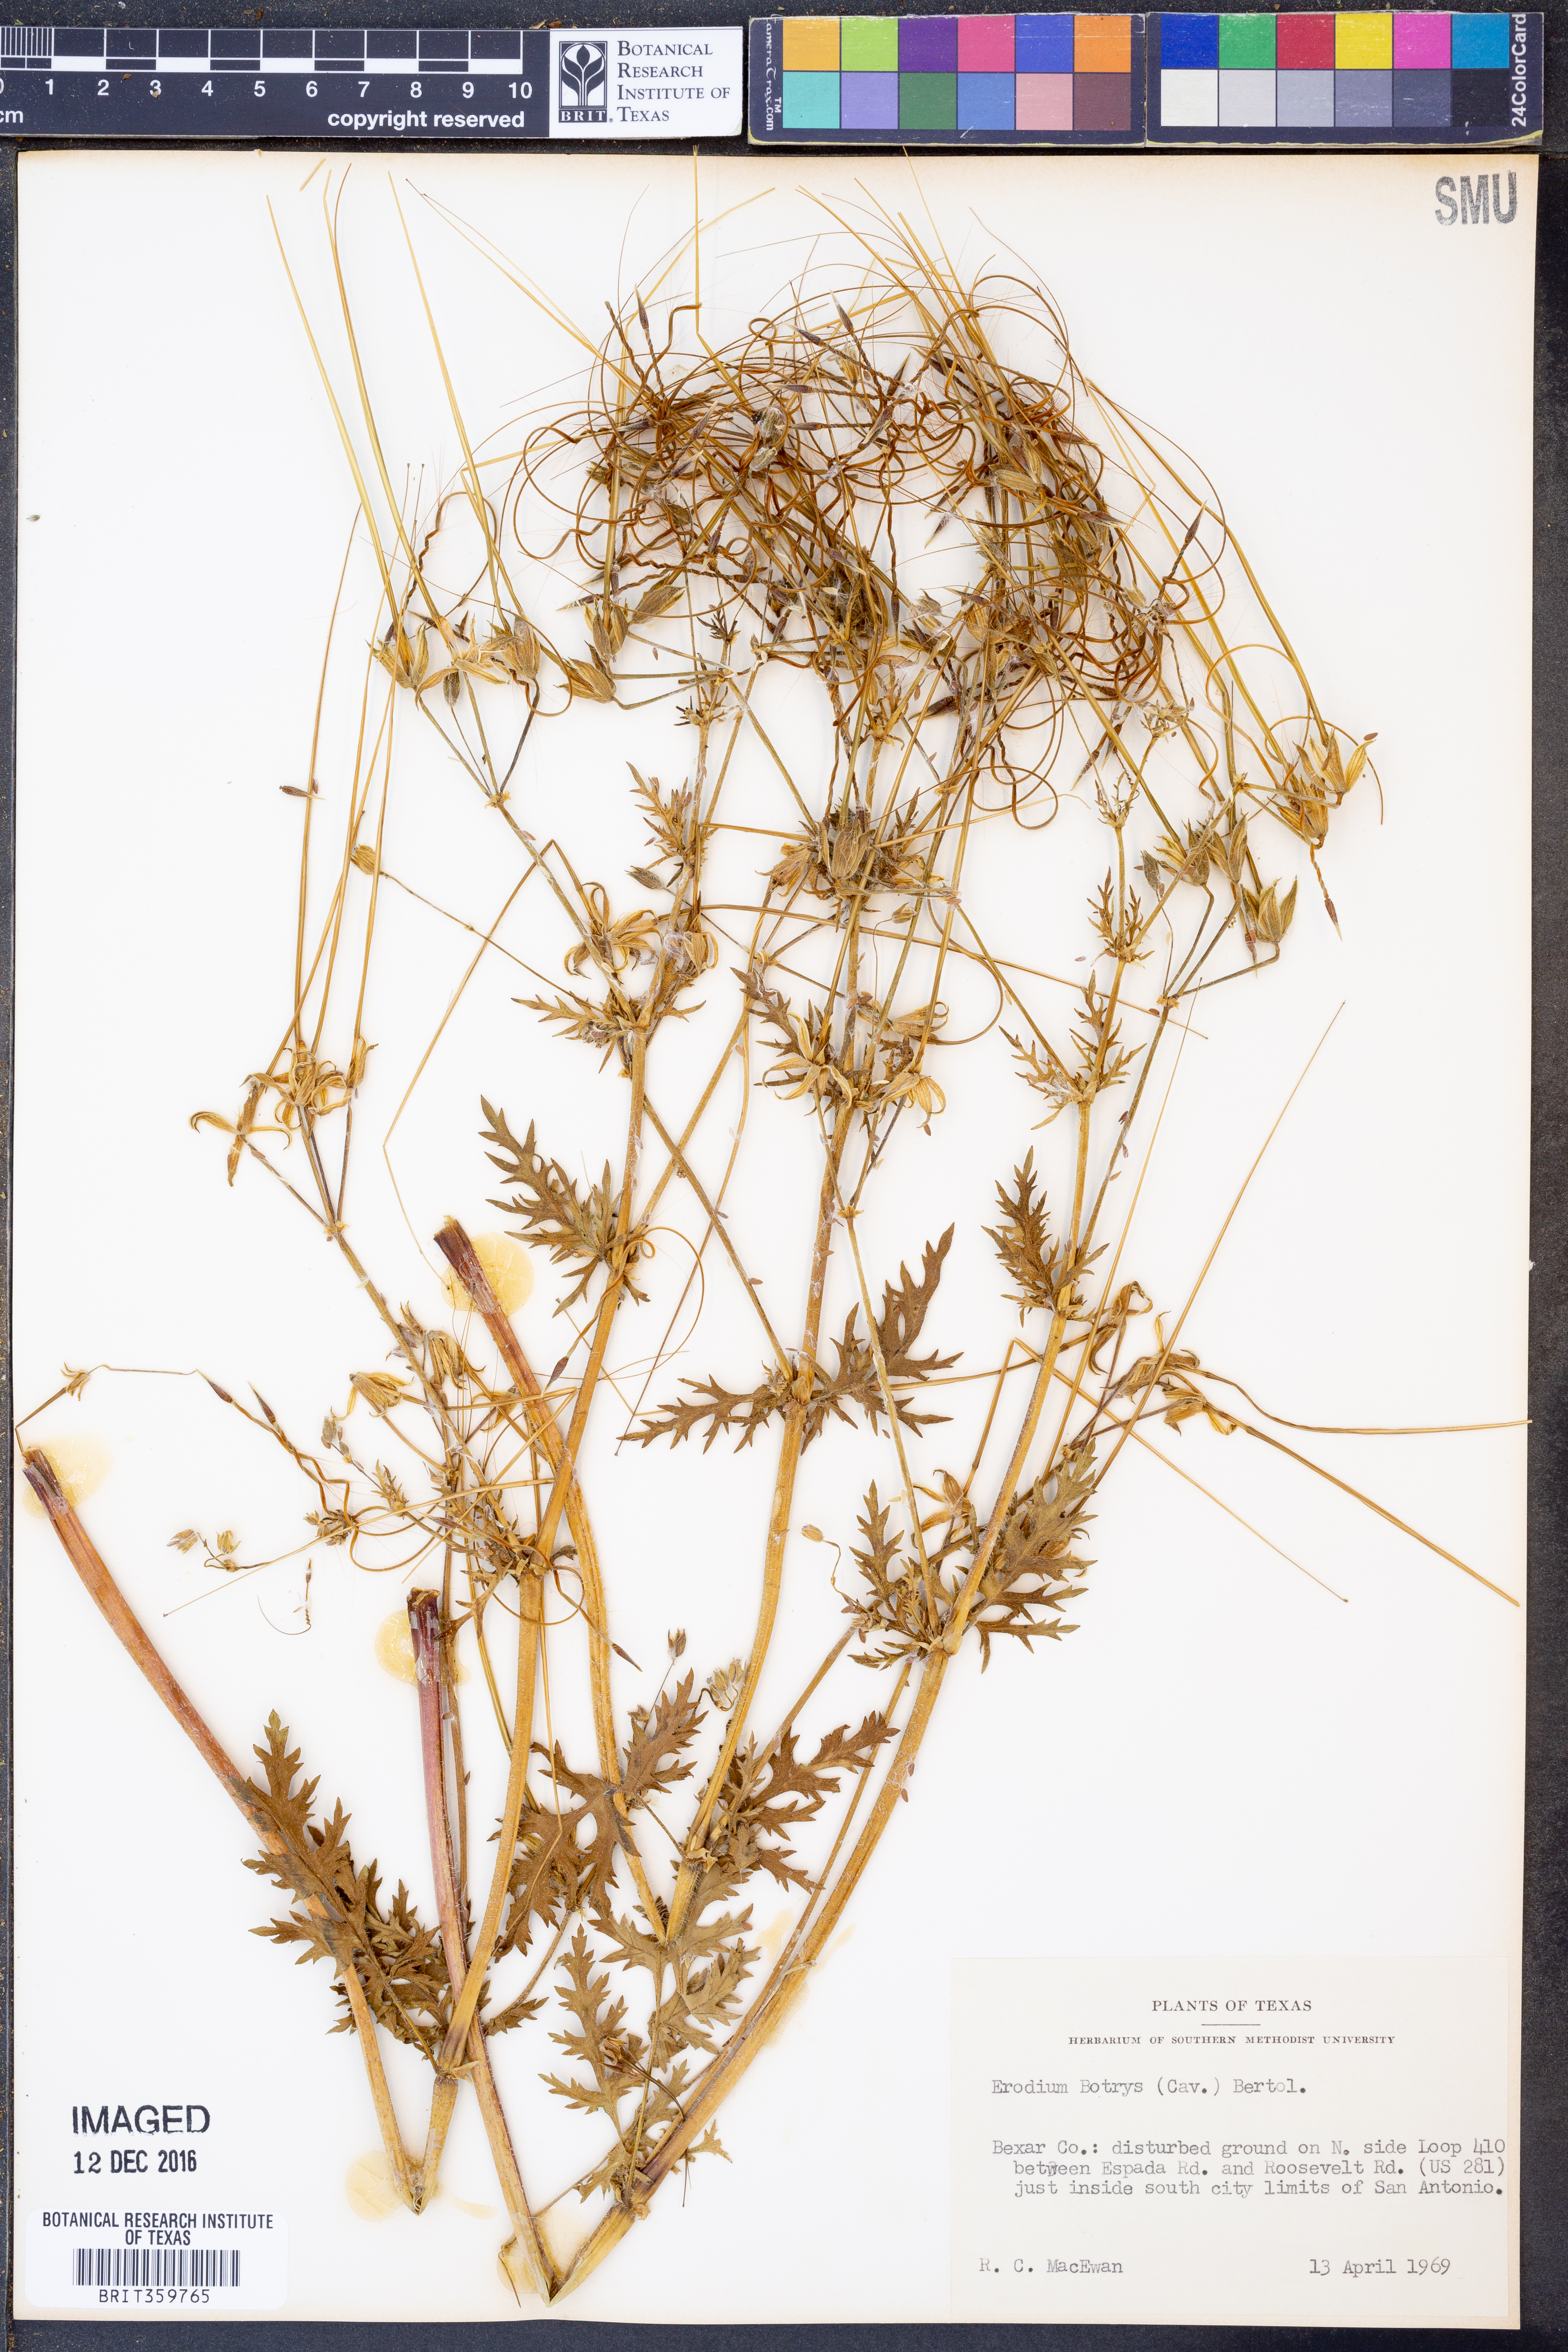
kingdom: Plantae
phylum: Tracheophyta
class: Magnoliopsida
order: Geraniales
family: Geraniaceae
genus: Erodium
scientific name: Erodium oxyrrhynchum
